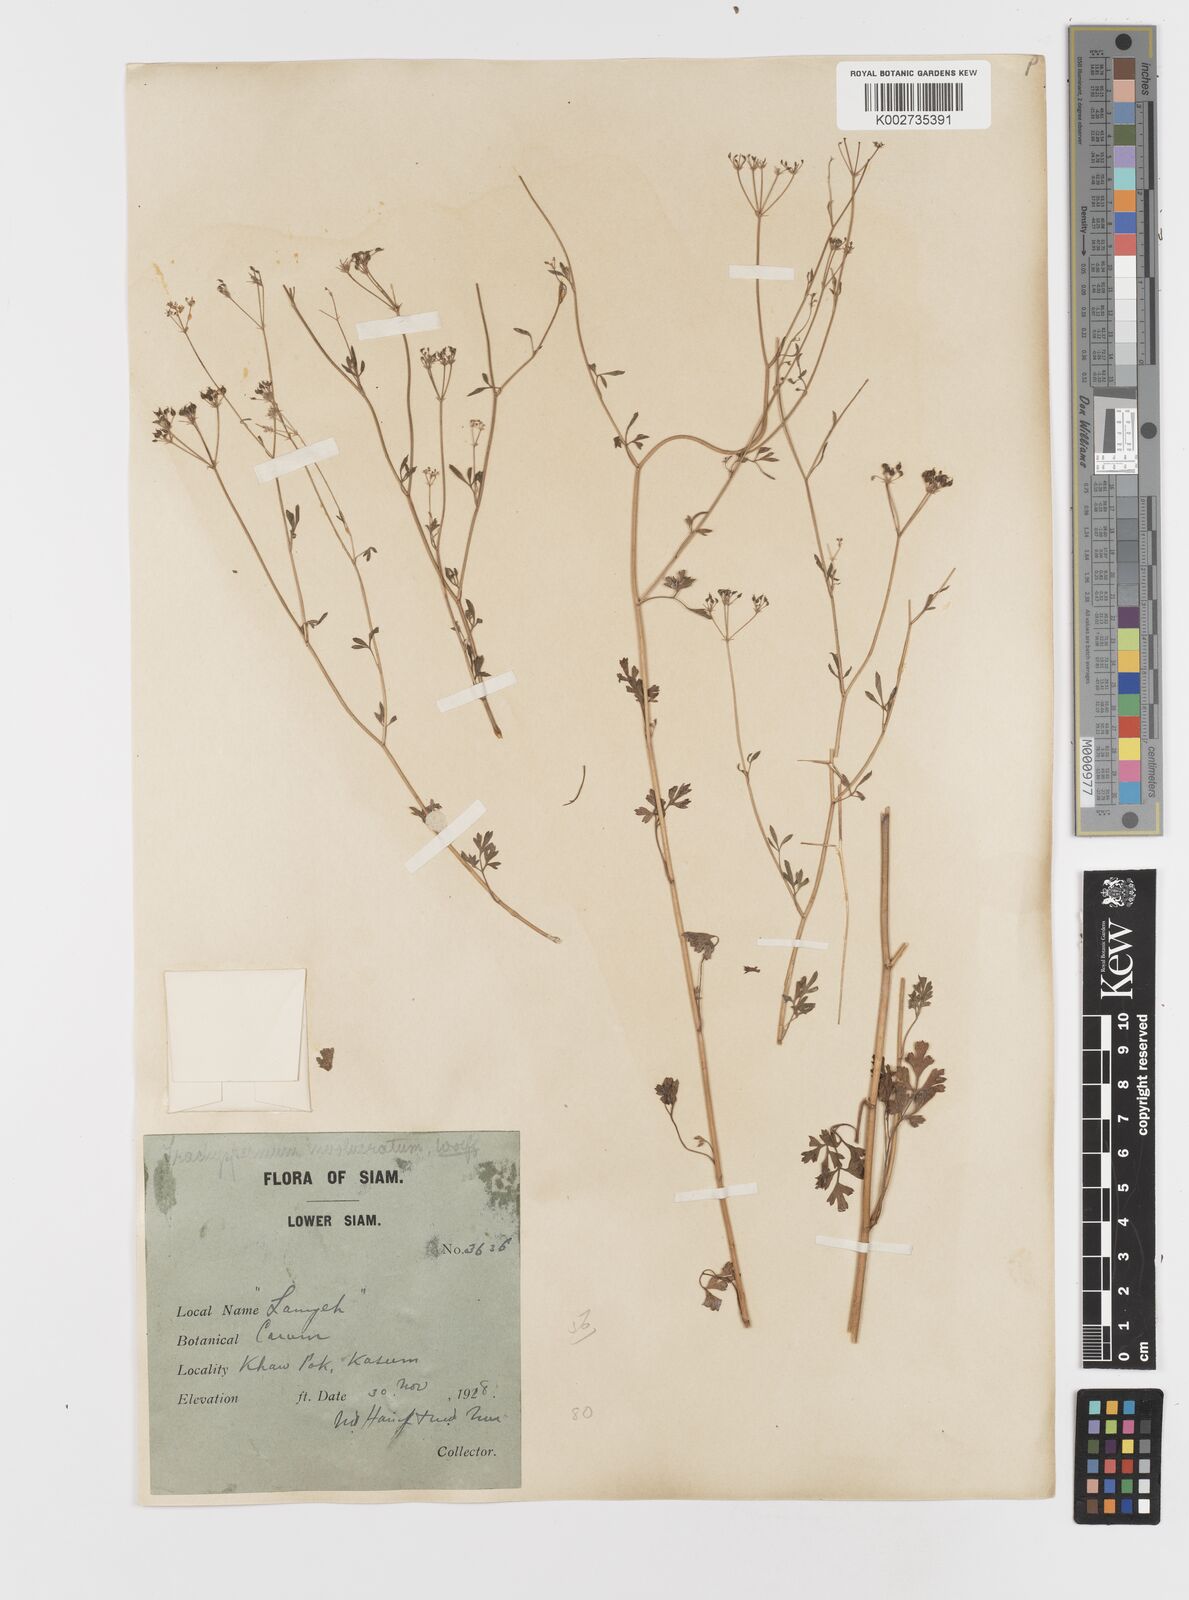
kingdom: Plantae
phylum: Tracheophyta
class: Magnoliopsida
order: Apiales
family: Apiaceae
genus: Psammogeton
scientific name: Psammogeton involucratum
